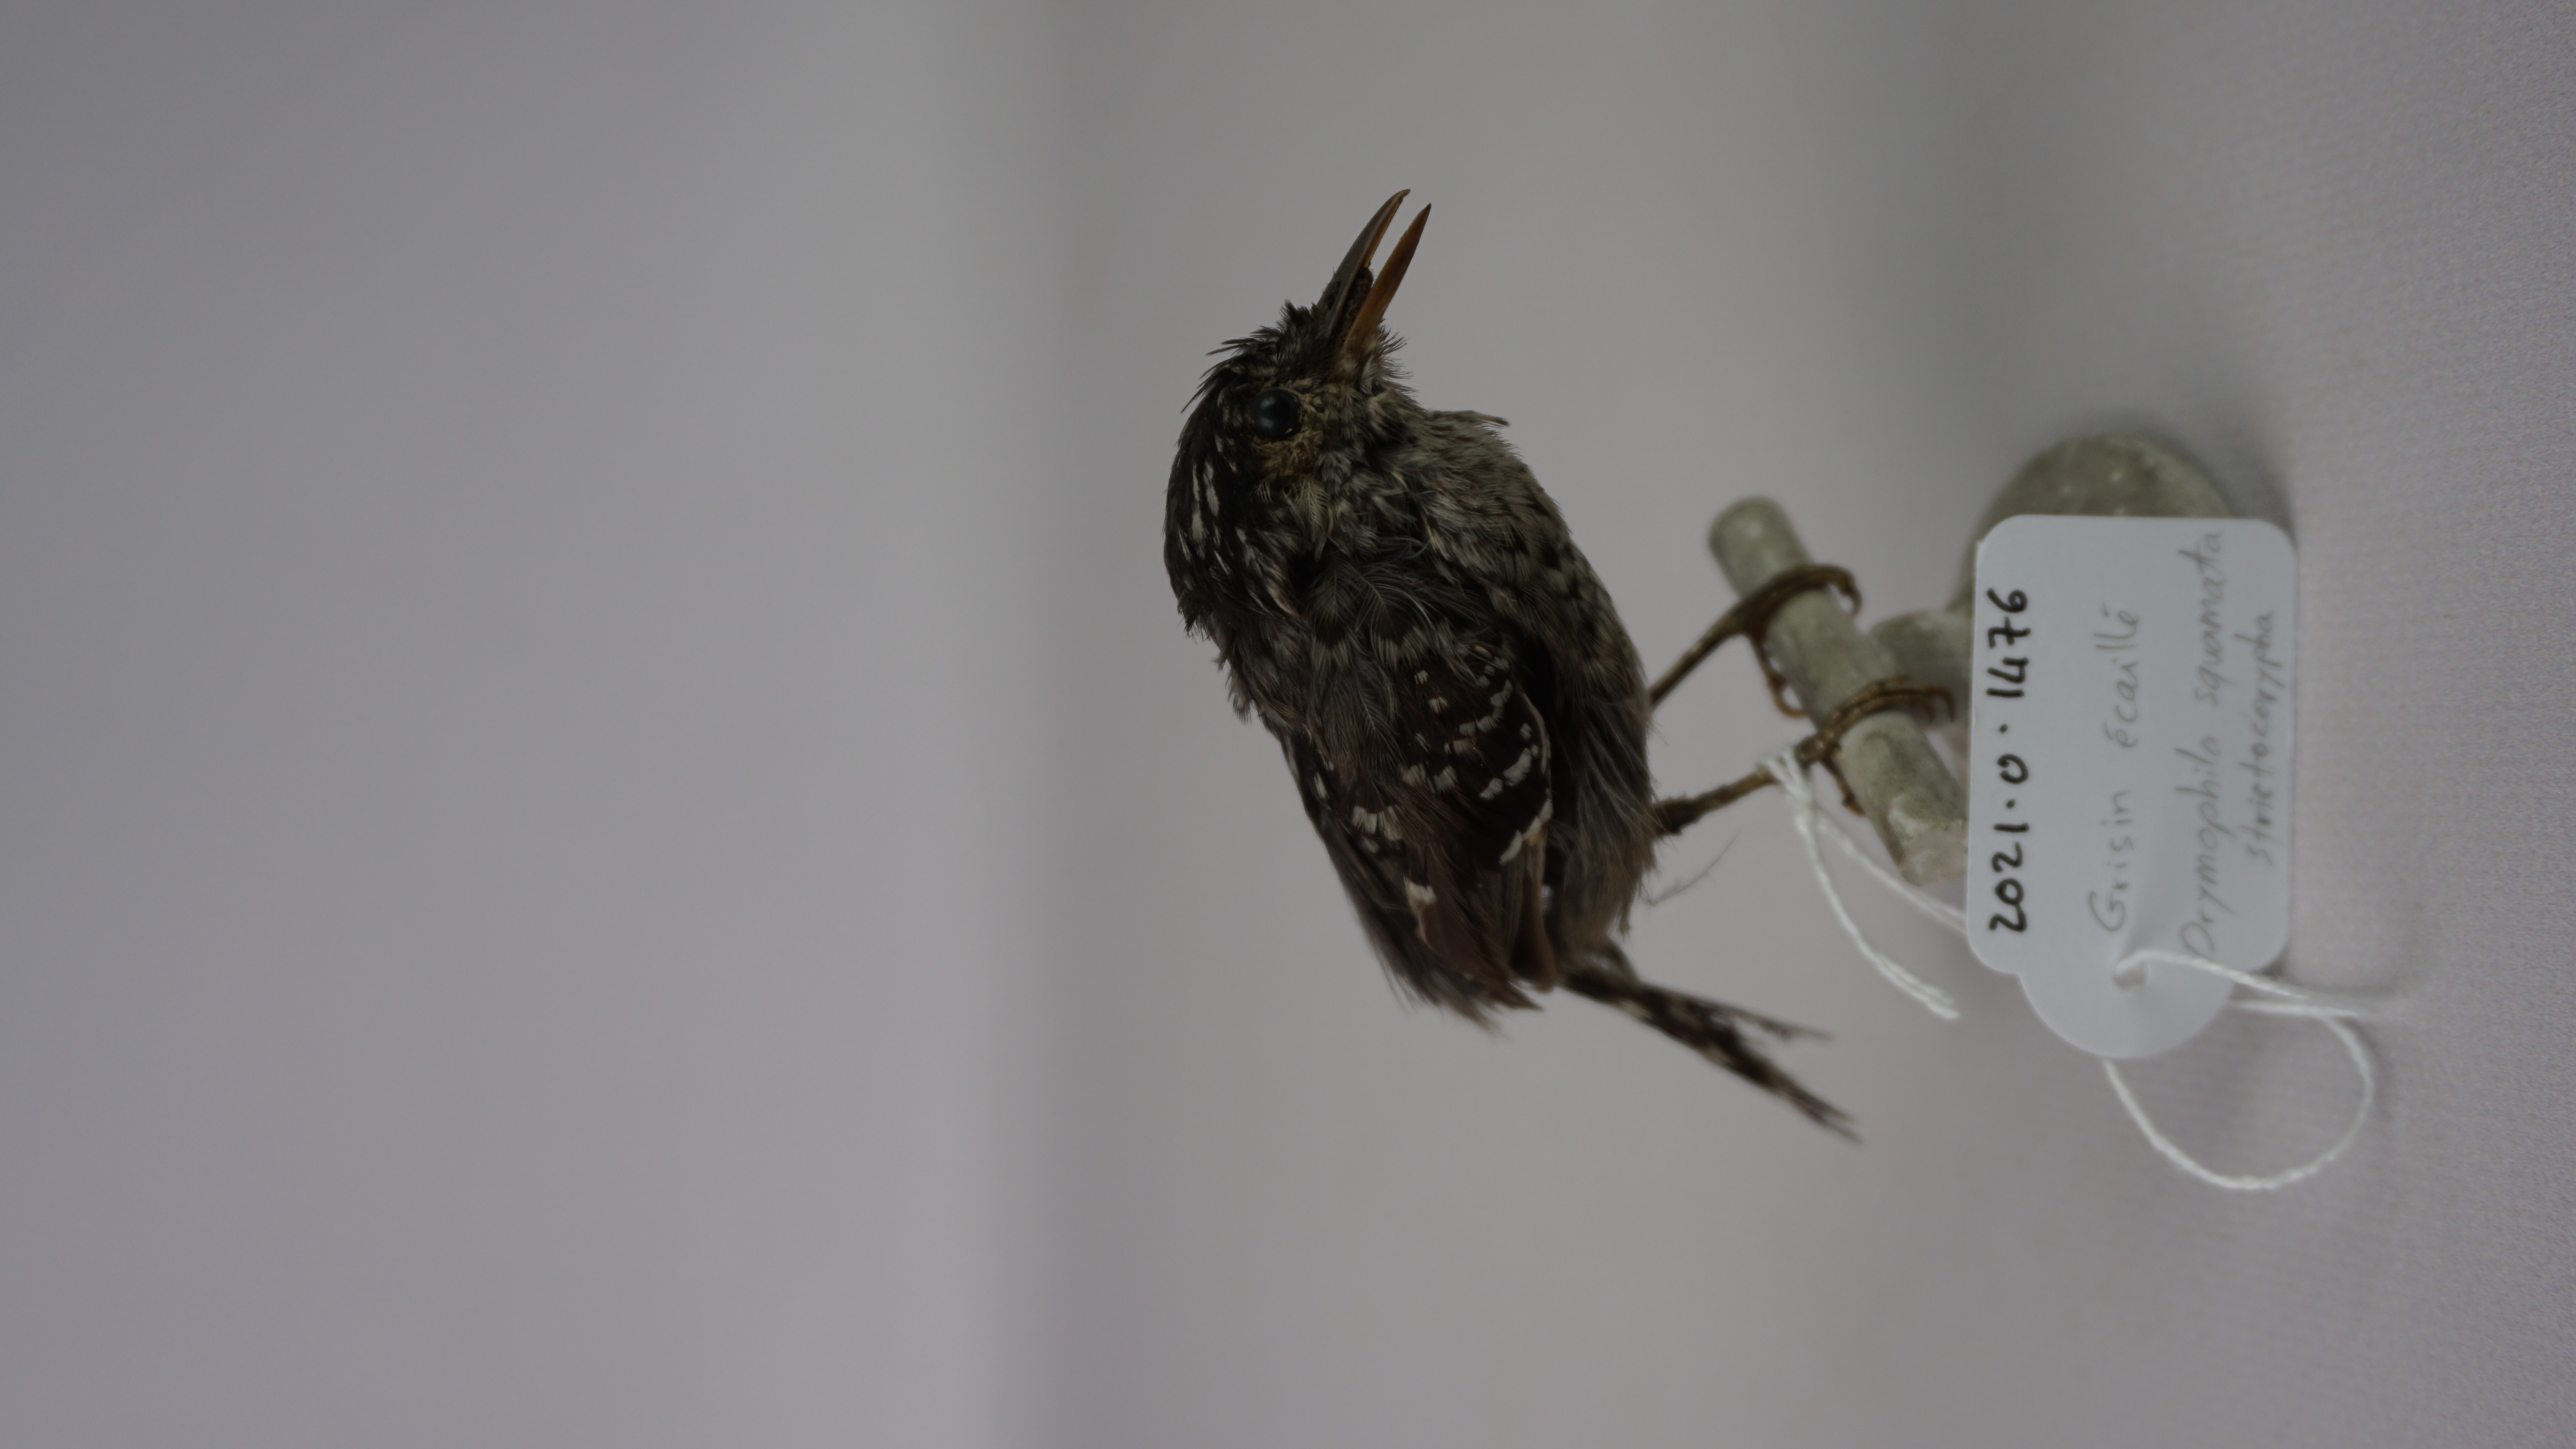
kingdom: Animalia
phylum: Chordata
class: Aves
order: Passeriformes
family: Thamnophilidae
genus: Drymophila
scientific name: Drymophila squamata
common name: Scaled antbird
